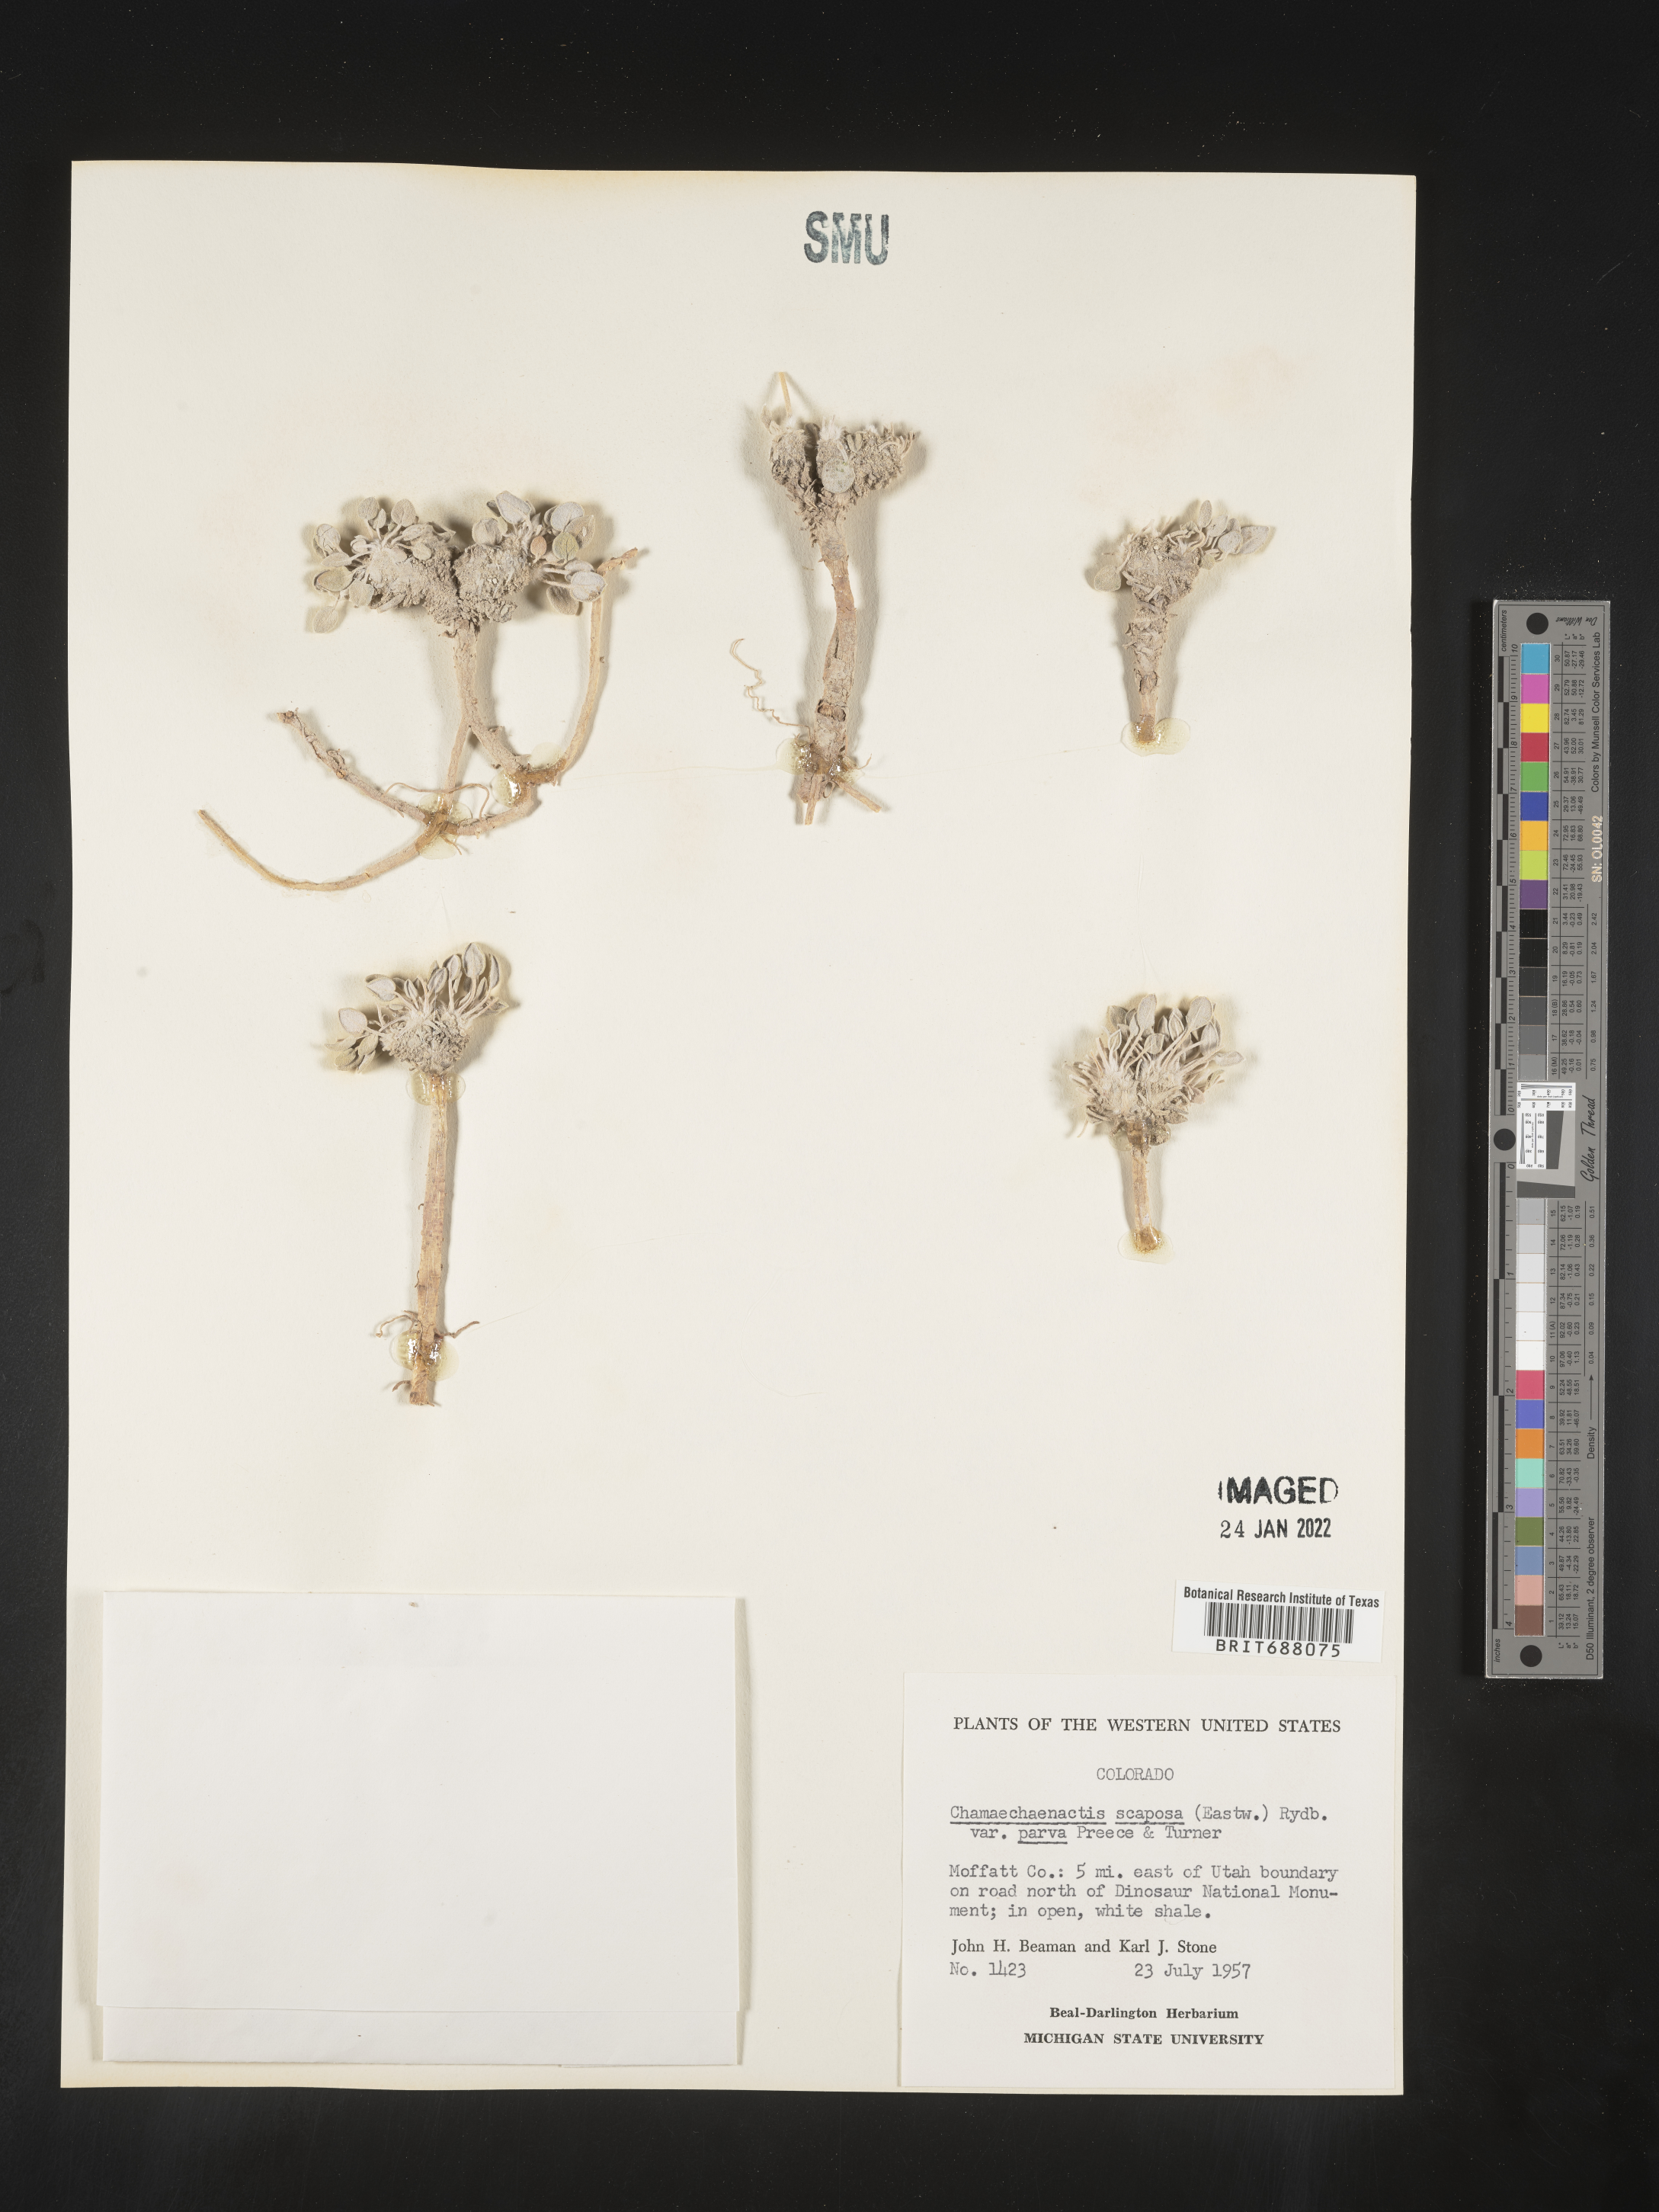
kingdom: Plantae
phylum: Tracheophyta
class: Magnoliopsida
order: Asterales
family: Asteraceae
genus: Chamaechaenactis
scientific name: Chamaechaenactis
